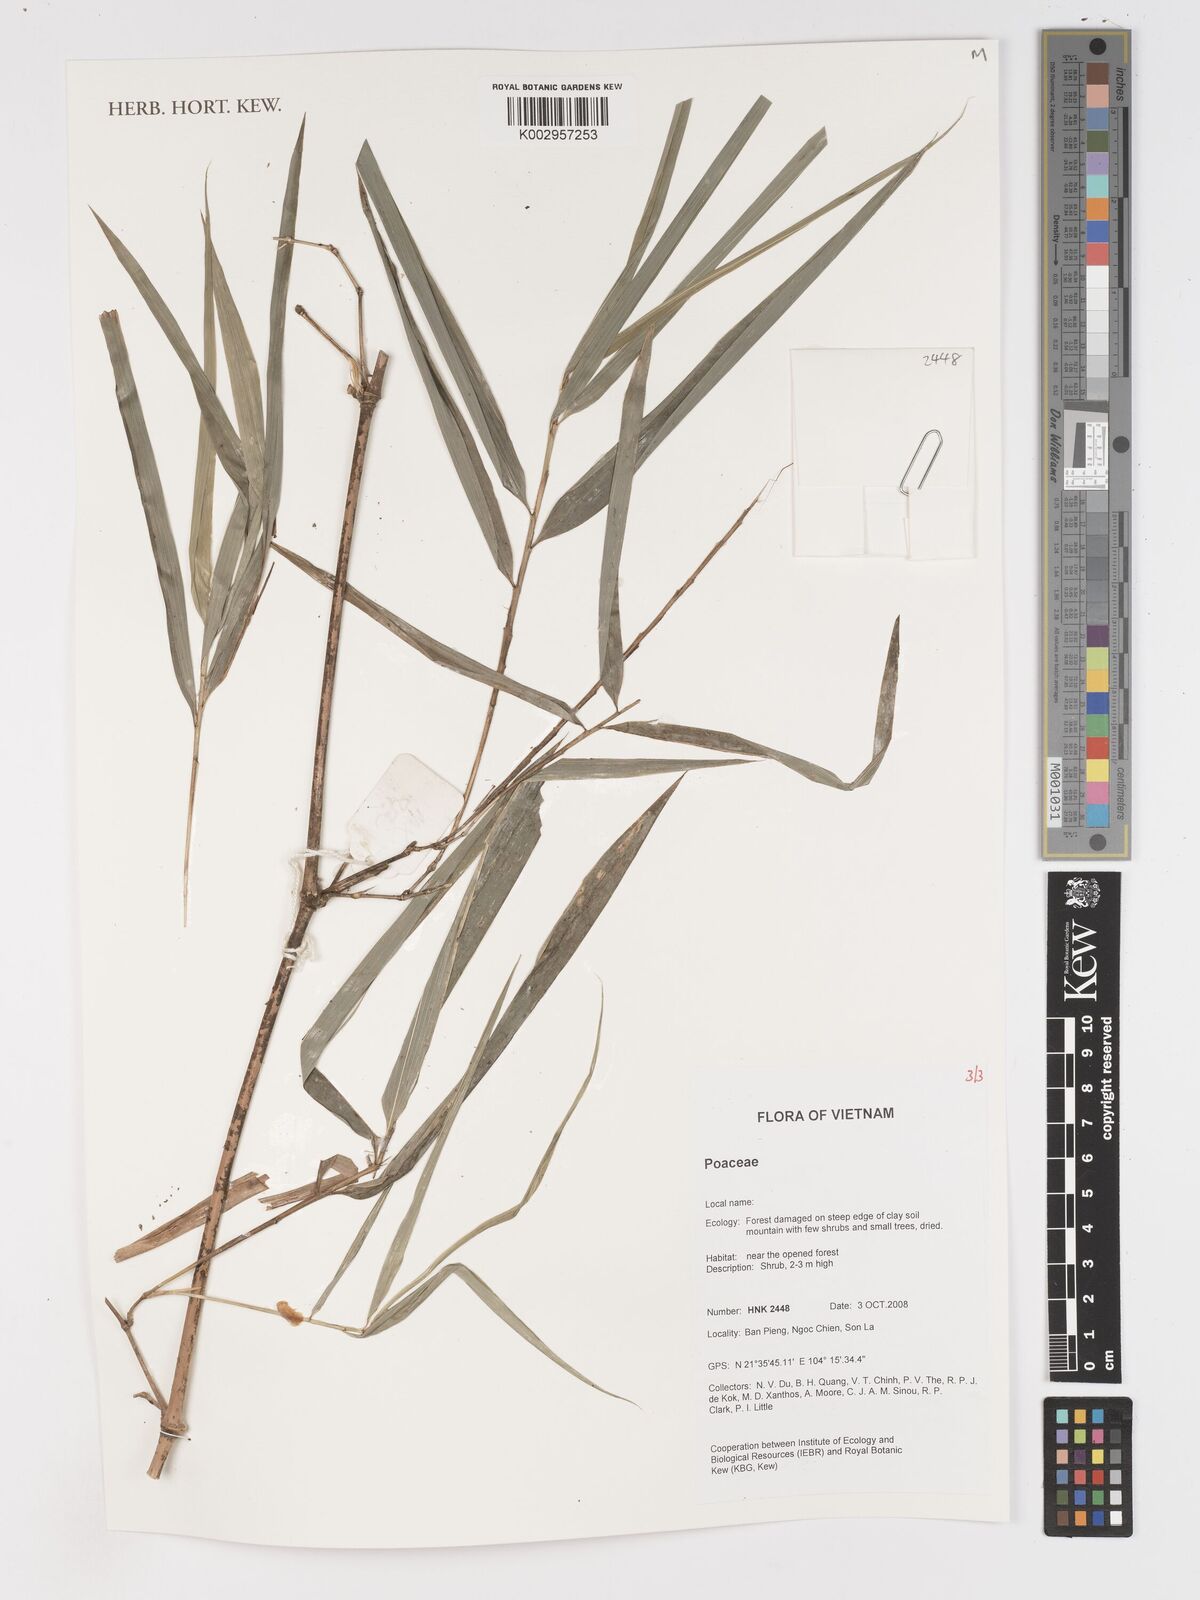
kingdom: Plantae
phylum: Tracheophyta
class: Liliopsida
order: Poales
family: Poaceae
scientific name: Poaceae
